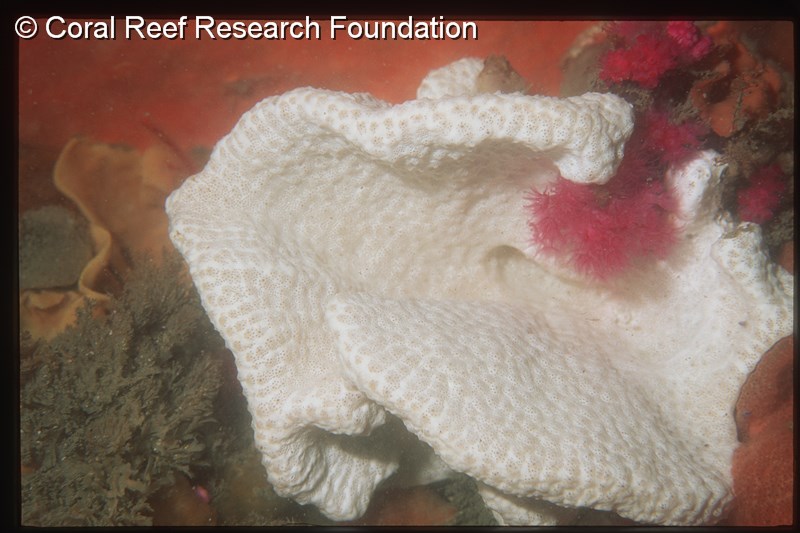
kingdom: Animalia
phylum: Chordata
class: Ascidiacea
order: Aplousobranchia
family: Didemnidae
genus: Leptoclinides
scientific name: Leptoclinides
